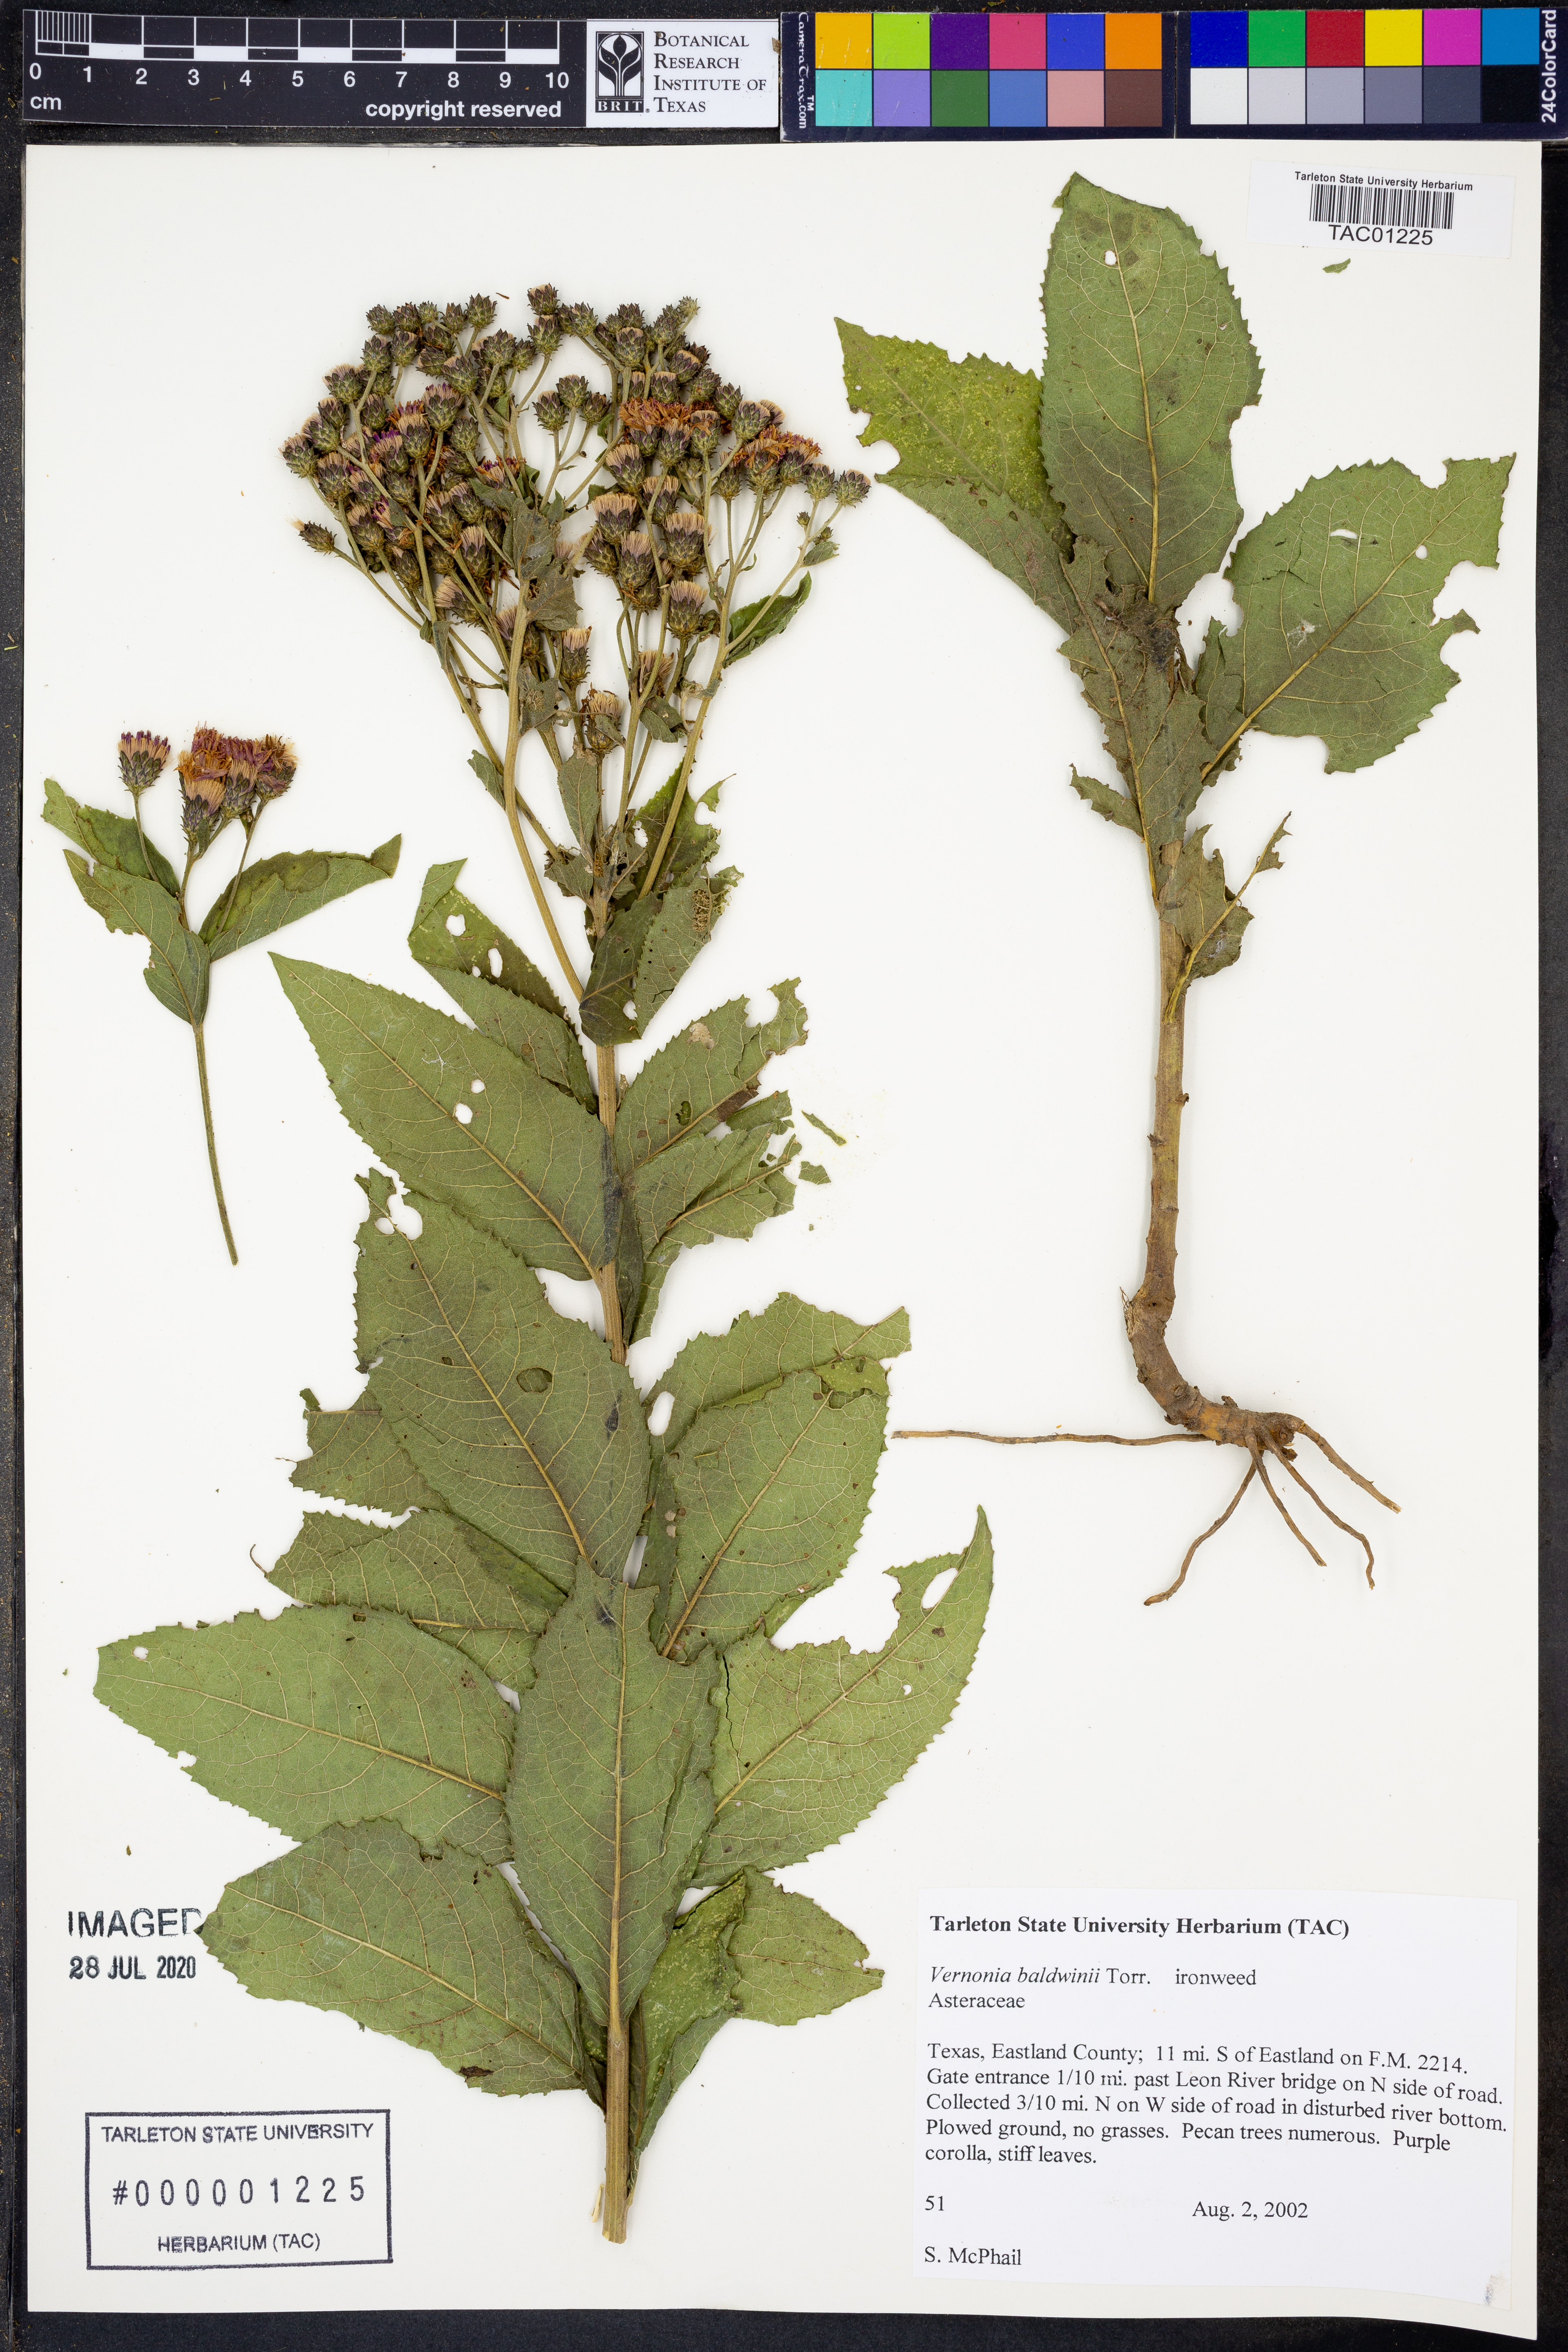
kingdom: Plantae
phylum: Tracheophyta
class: Magnoliopsida
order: Asterales
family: Asteraceae
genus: Vernonia
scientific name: Vernonia baldwinii
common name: Western ironweed
